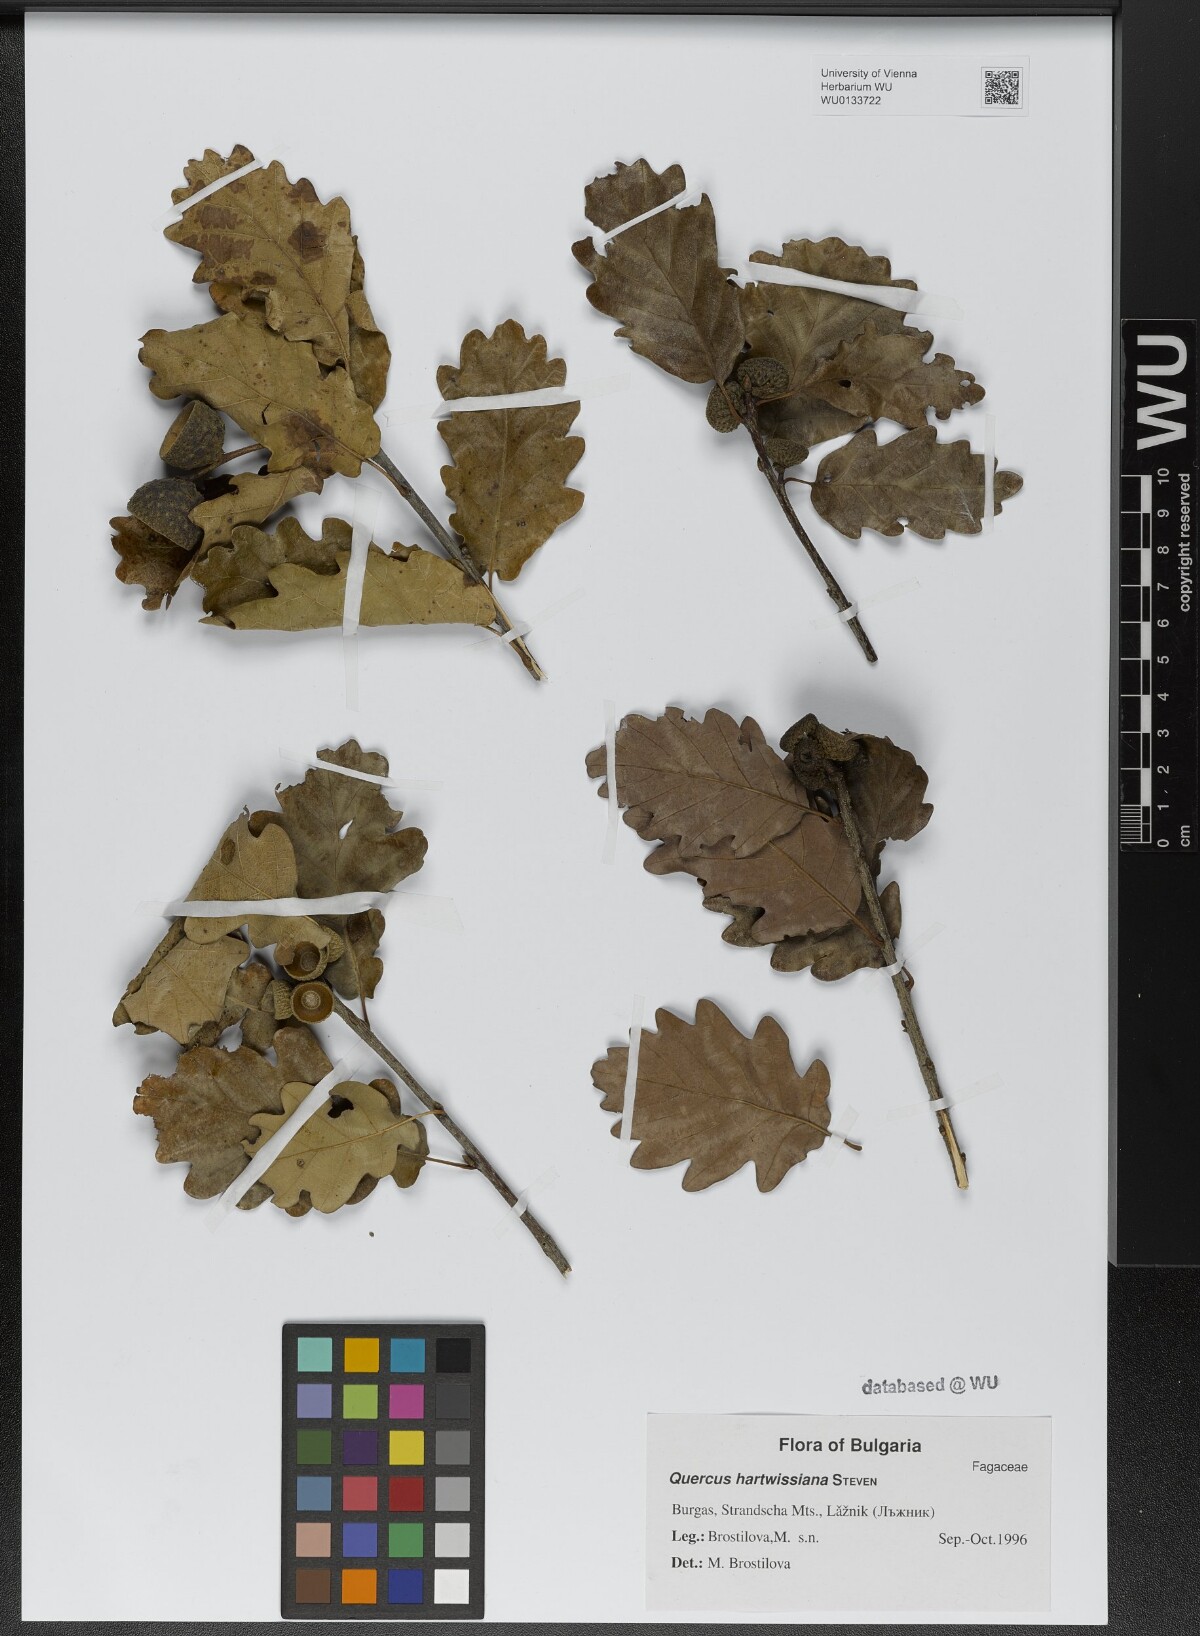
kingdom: Plantae
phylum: Tracheophyta
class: Magnoliopsida
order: Fagales
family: Fagaceae
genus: Quercus
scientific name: Quercus hartwissiana
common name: Strandzha oak
